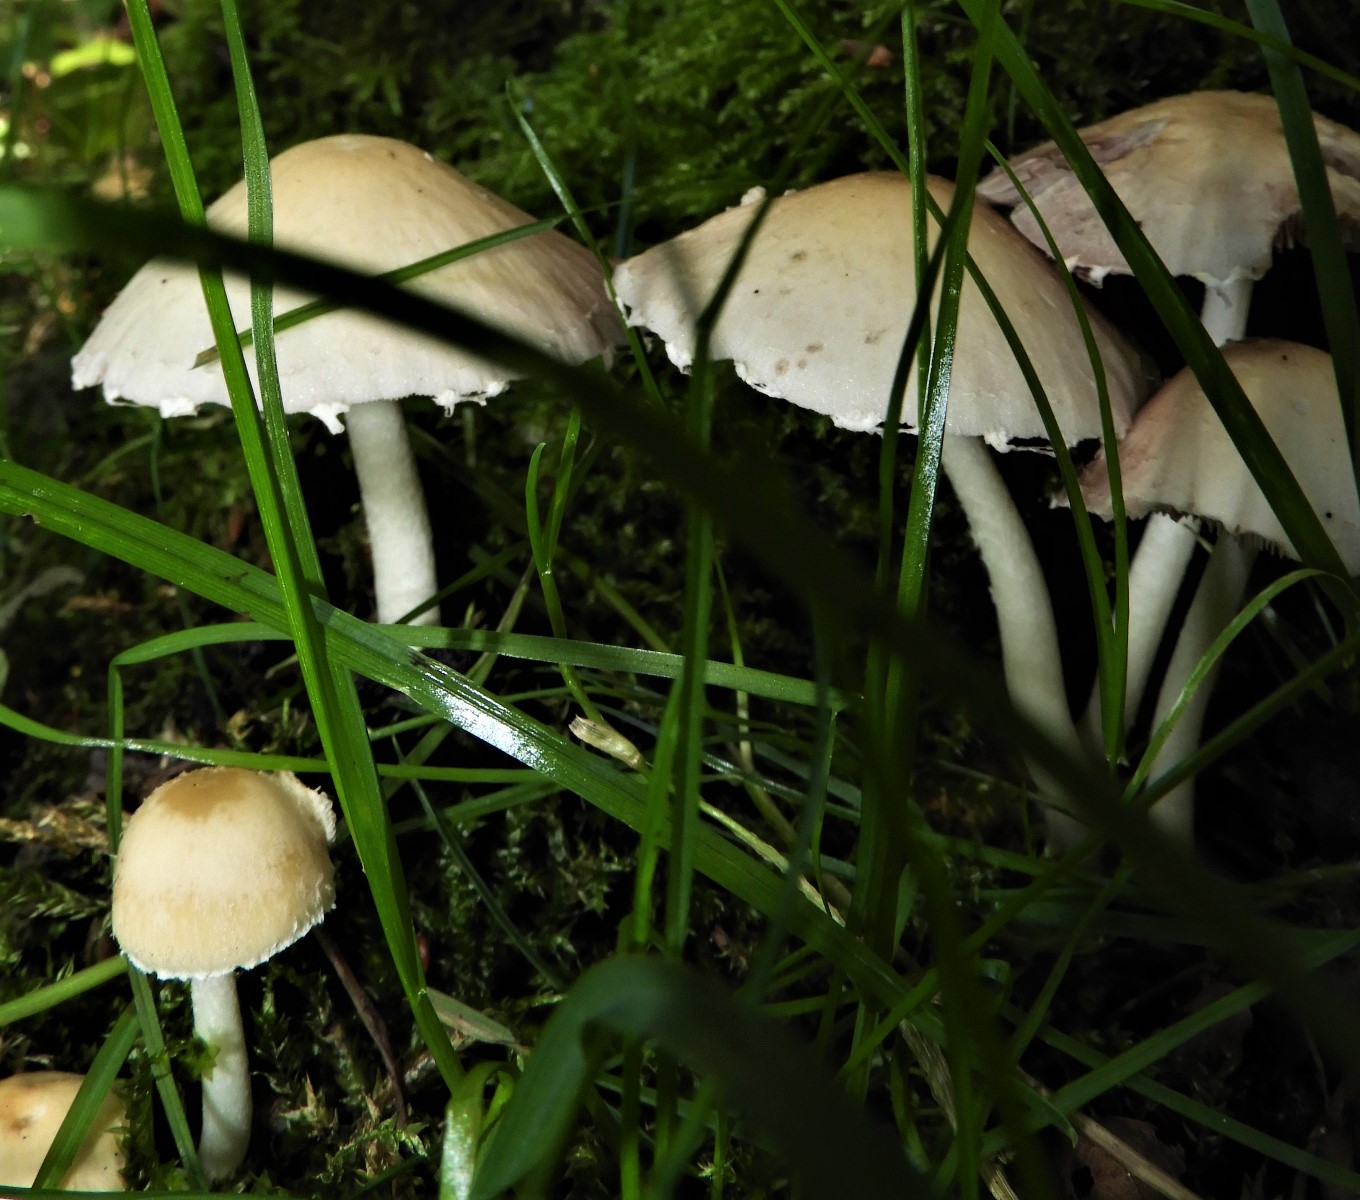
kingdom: Fungi
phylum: Basidiomycota
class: Agaricomycetes
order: Agaricales
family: Psathyrellaceae
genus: Candolleomyces
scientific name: Candolleomyces candolleanus
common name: Candolles mørkhat
